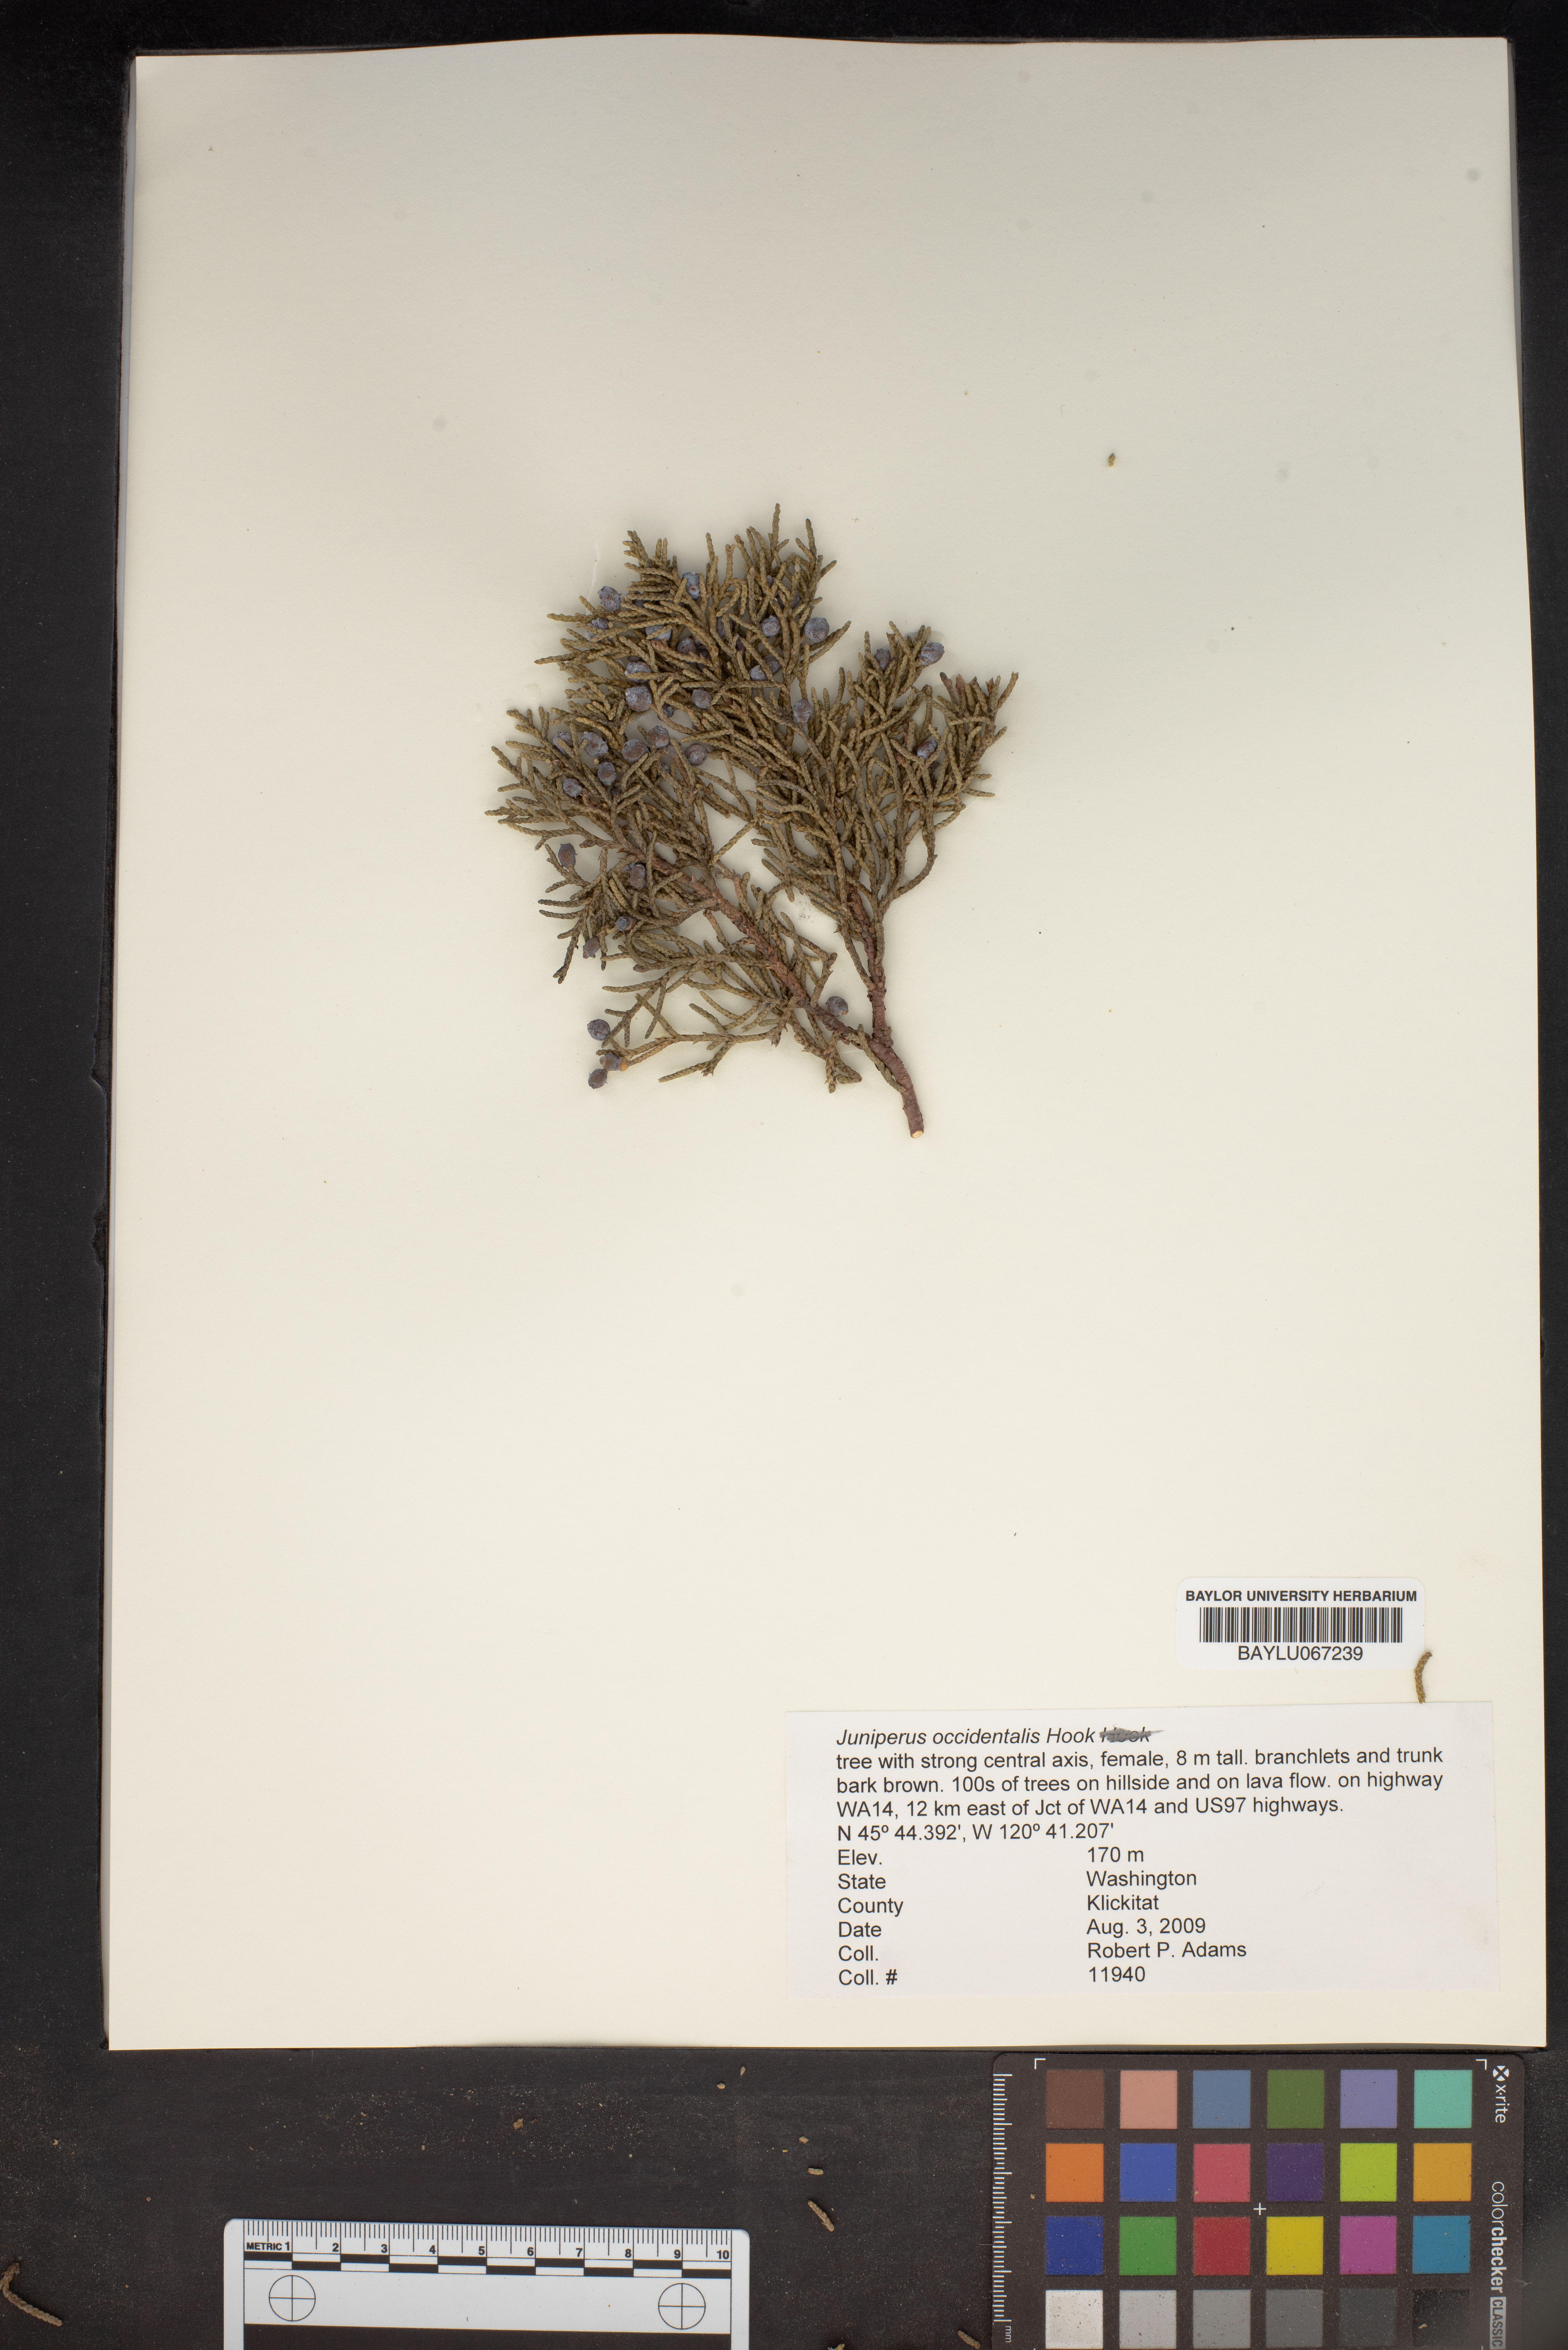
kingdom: Plantae
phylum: Tracheophyta
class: Pinopsida
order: Pinales
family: Cupressaceae
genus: Juniperus
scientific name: Juniperus occidentalis
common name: Western juniper
